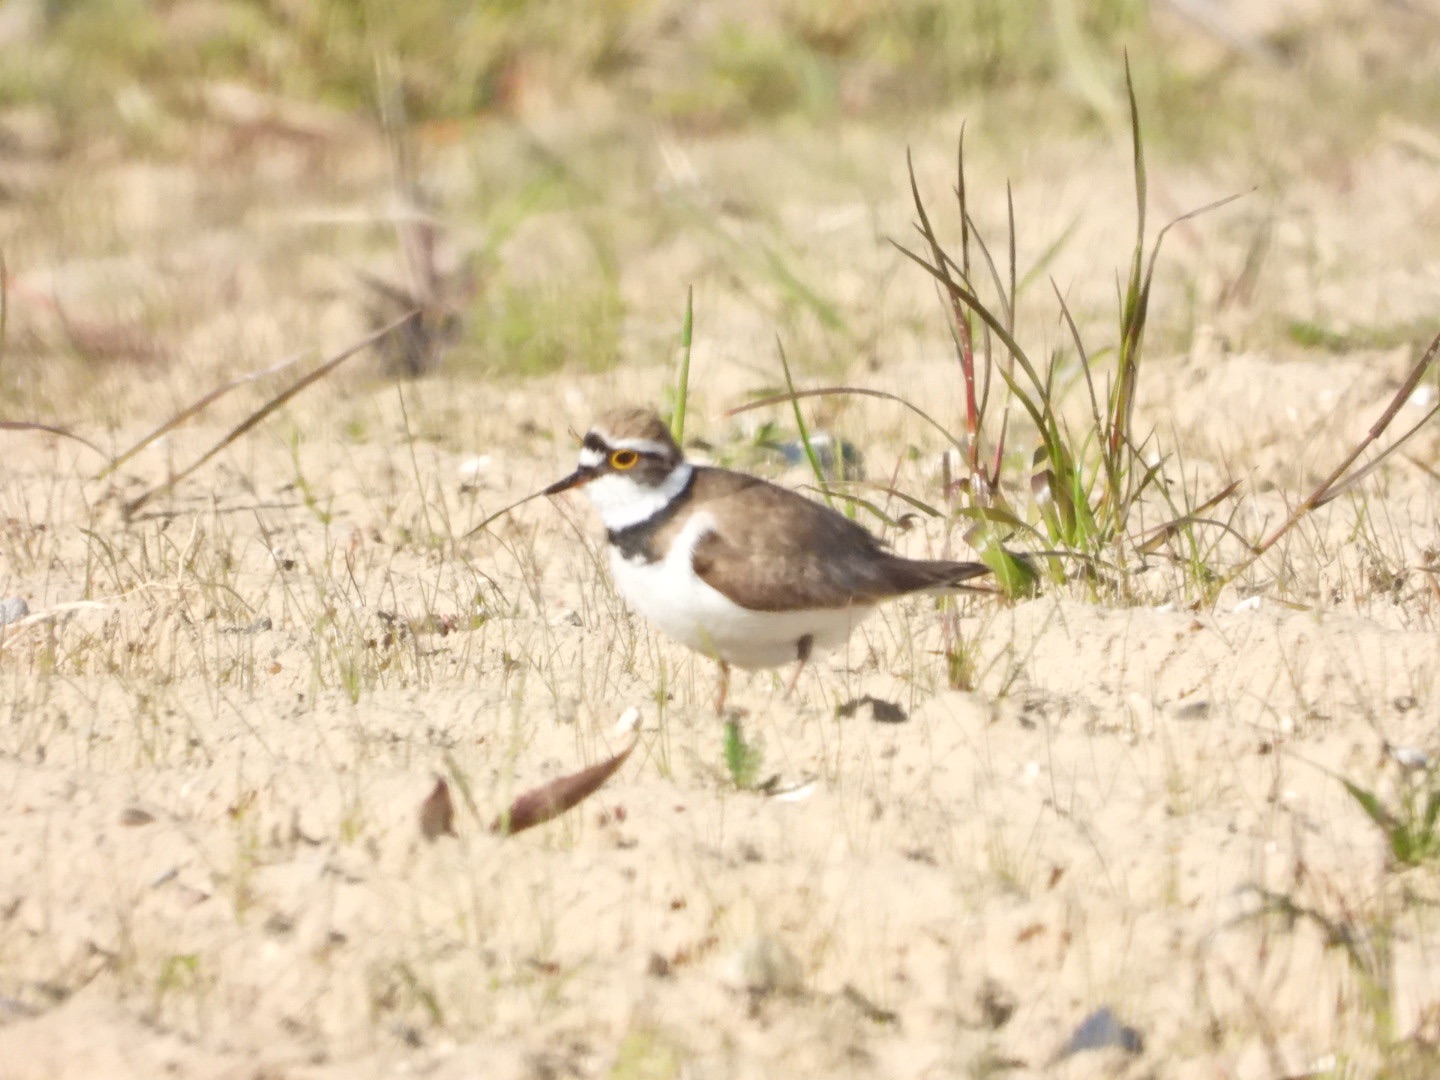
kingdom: Animalia
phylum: Chordata
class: Aves
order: Charadriiformes
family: Charadriidae
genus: Charadrius
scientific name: Charadrius dubius
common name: Lille præstekrave
